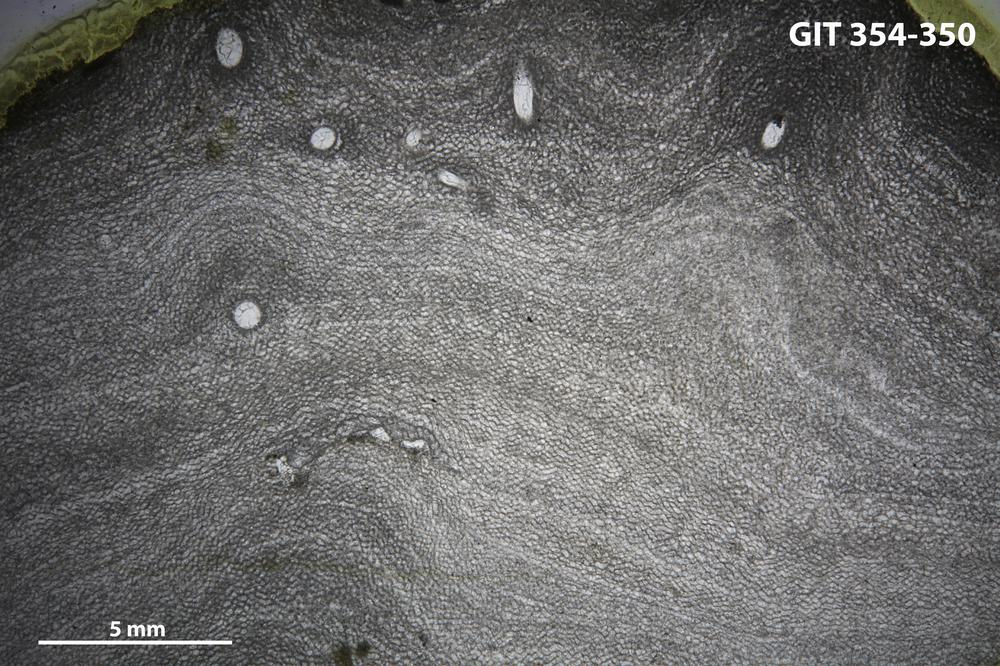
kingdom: Animalia
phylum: Porifera
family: Ecclimadictyidae
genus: Ecclimadictyon
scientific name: Ecclimadictyon macrotuberculatum
